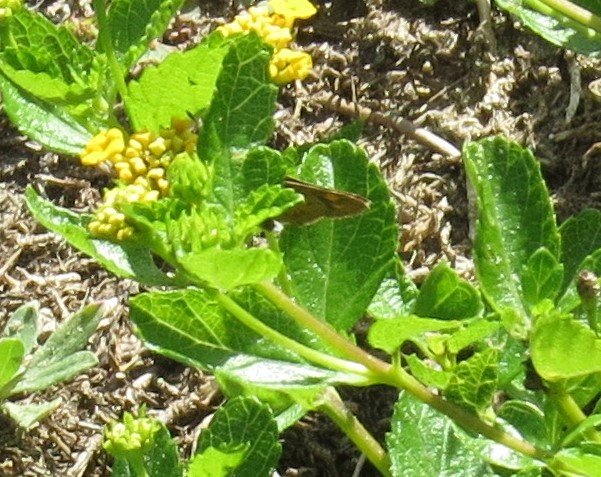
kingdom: Animalia
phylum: Arthropoda
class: Insecta
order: Lepidoptera
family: Hesperiidae
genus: Hylephila
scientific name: Hylephila phyleus
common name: Fiery Skipper
